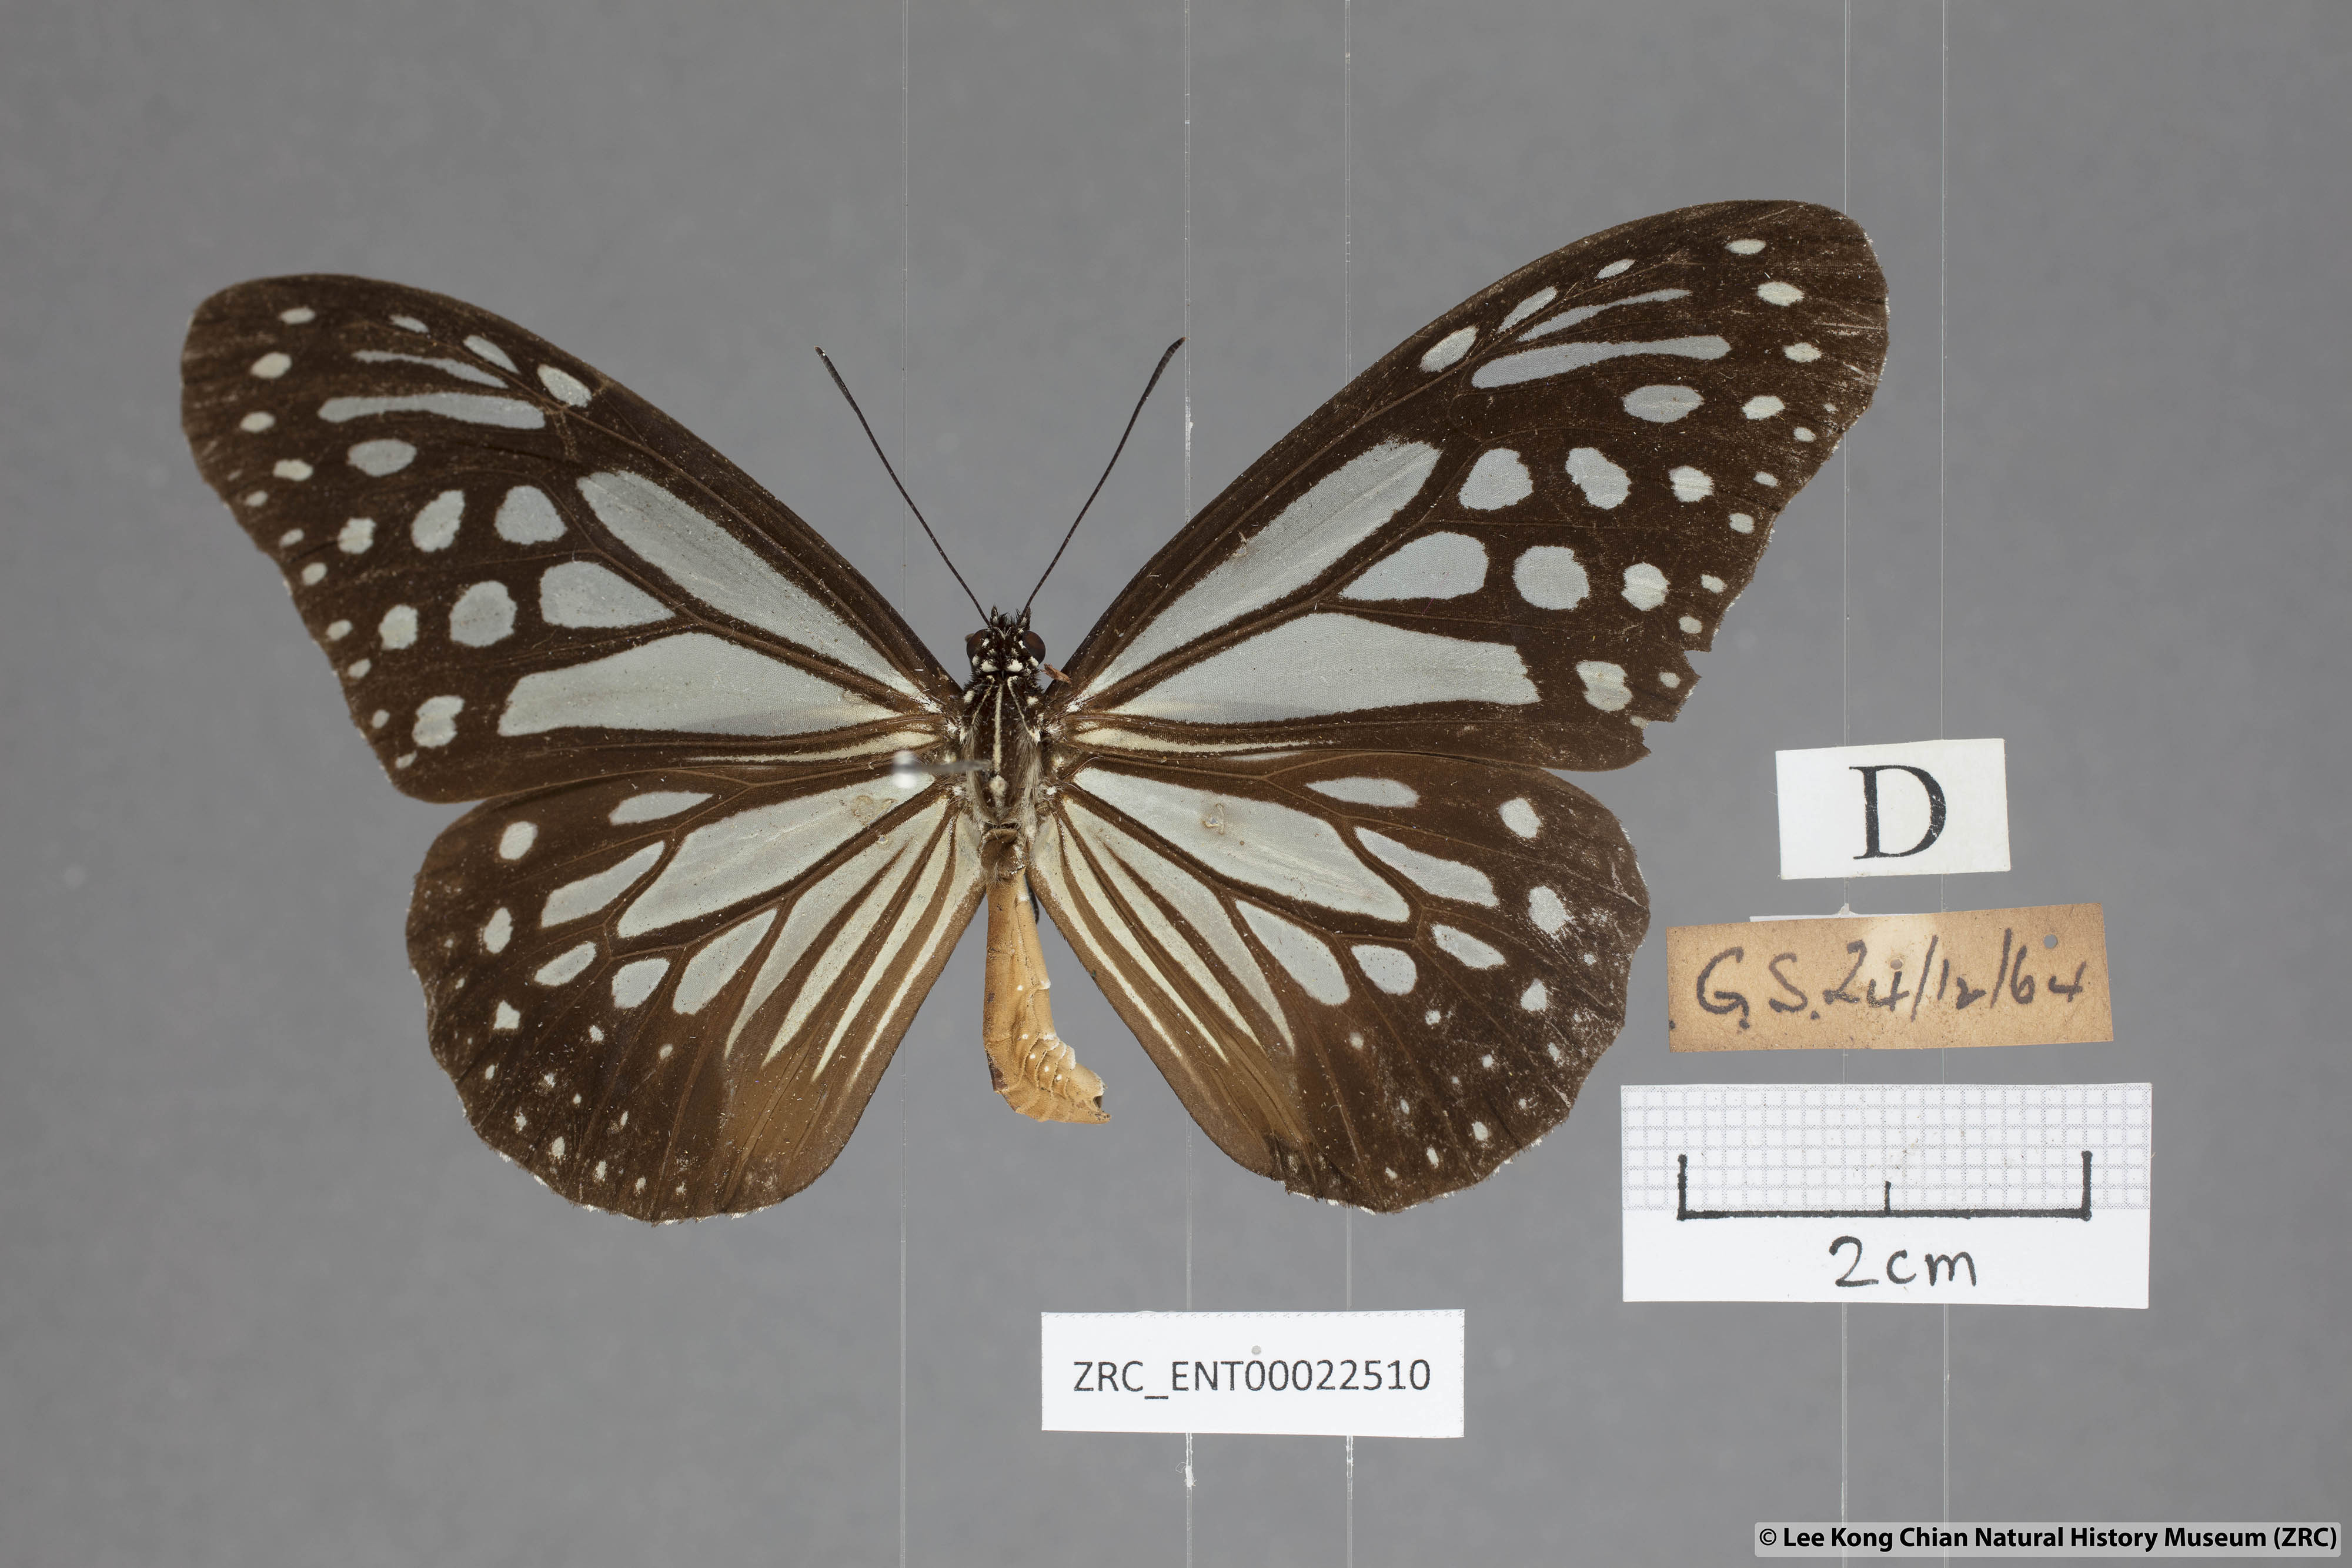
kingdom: Animalia
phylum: Arthropoda
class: Insecta
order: Lepidoptera
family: Nymphalidae
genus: Parantica
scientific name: Parantica melaneus
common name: Chocolate tiger
